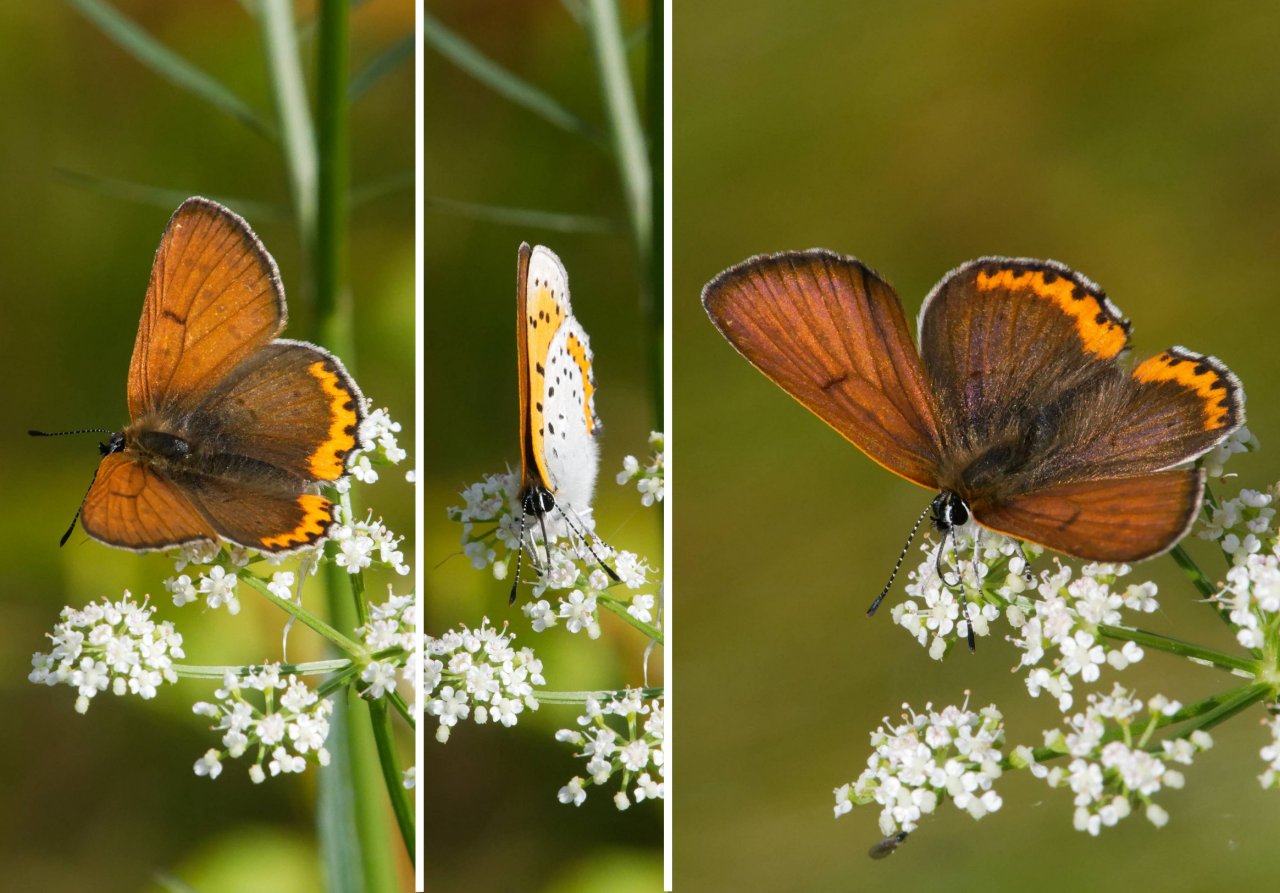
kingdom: Animalia
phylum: Arthropoda
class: Insecta
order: Lepidoptera
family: Sesiidae
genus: Sesia
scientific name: Sesia Lycaena hyllus
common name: Bronze Copper
